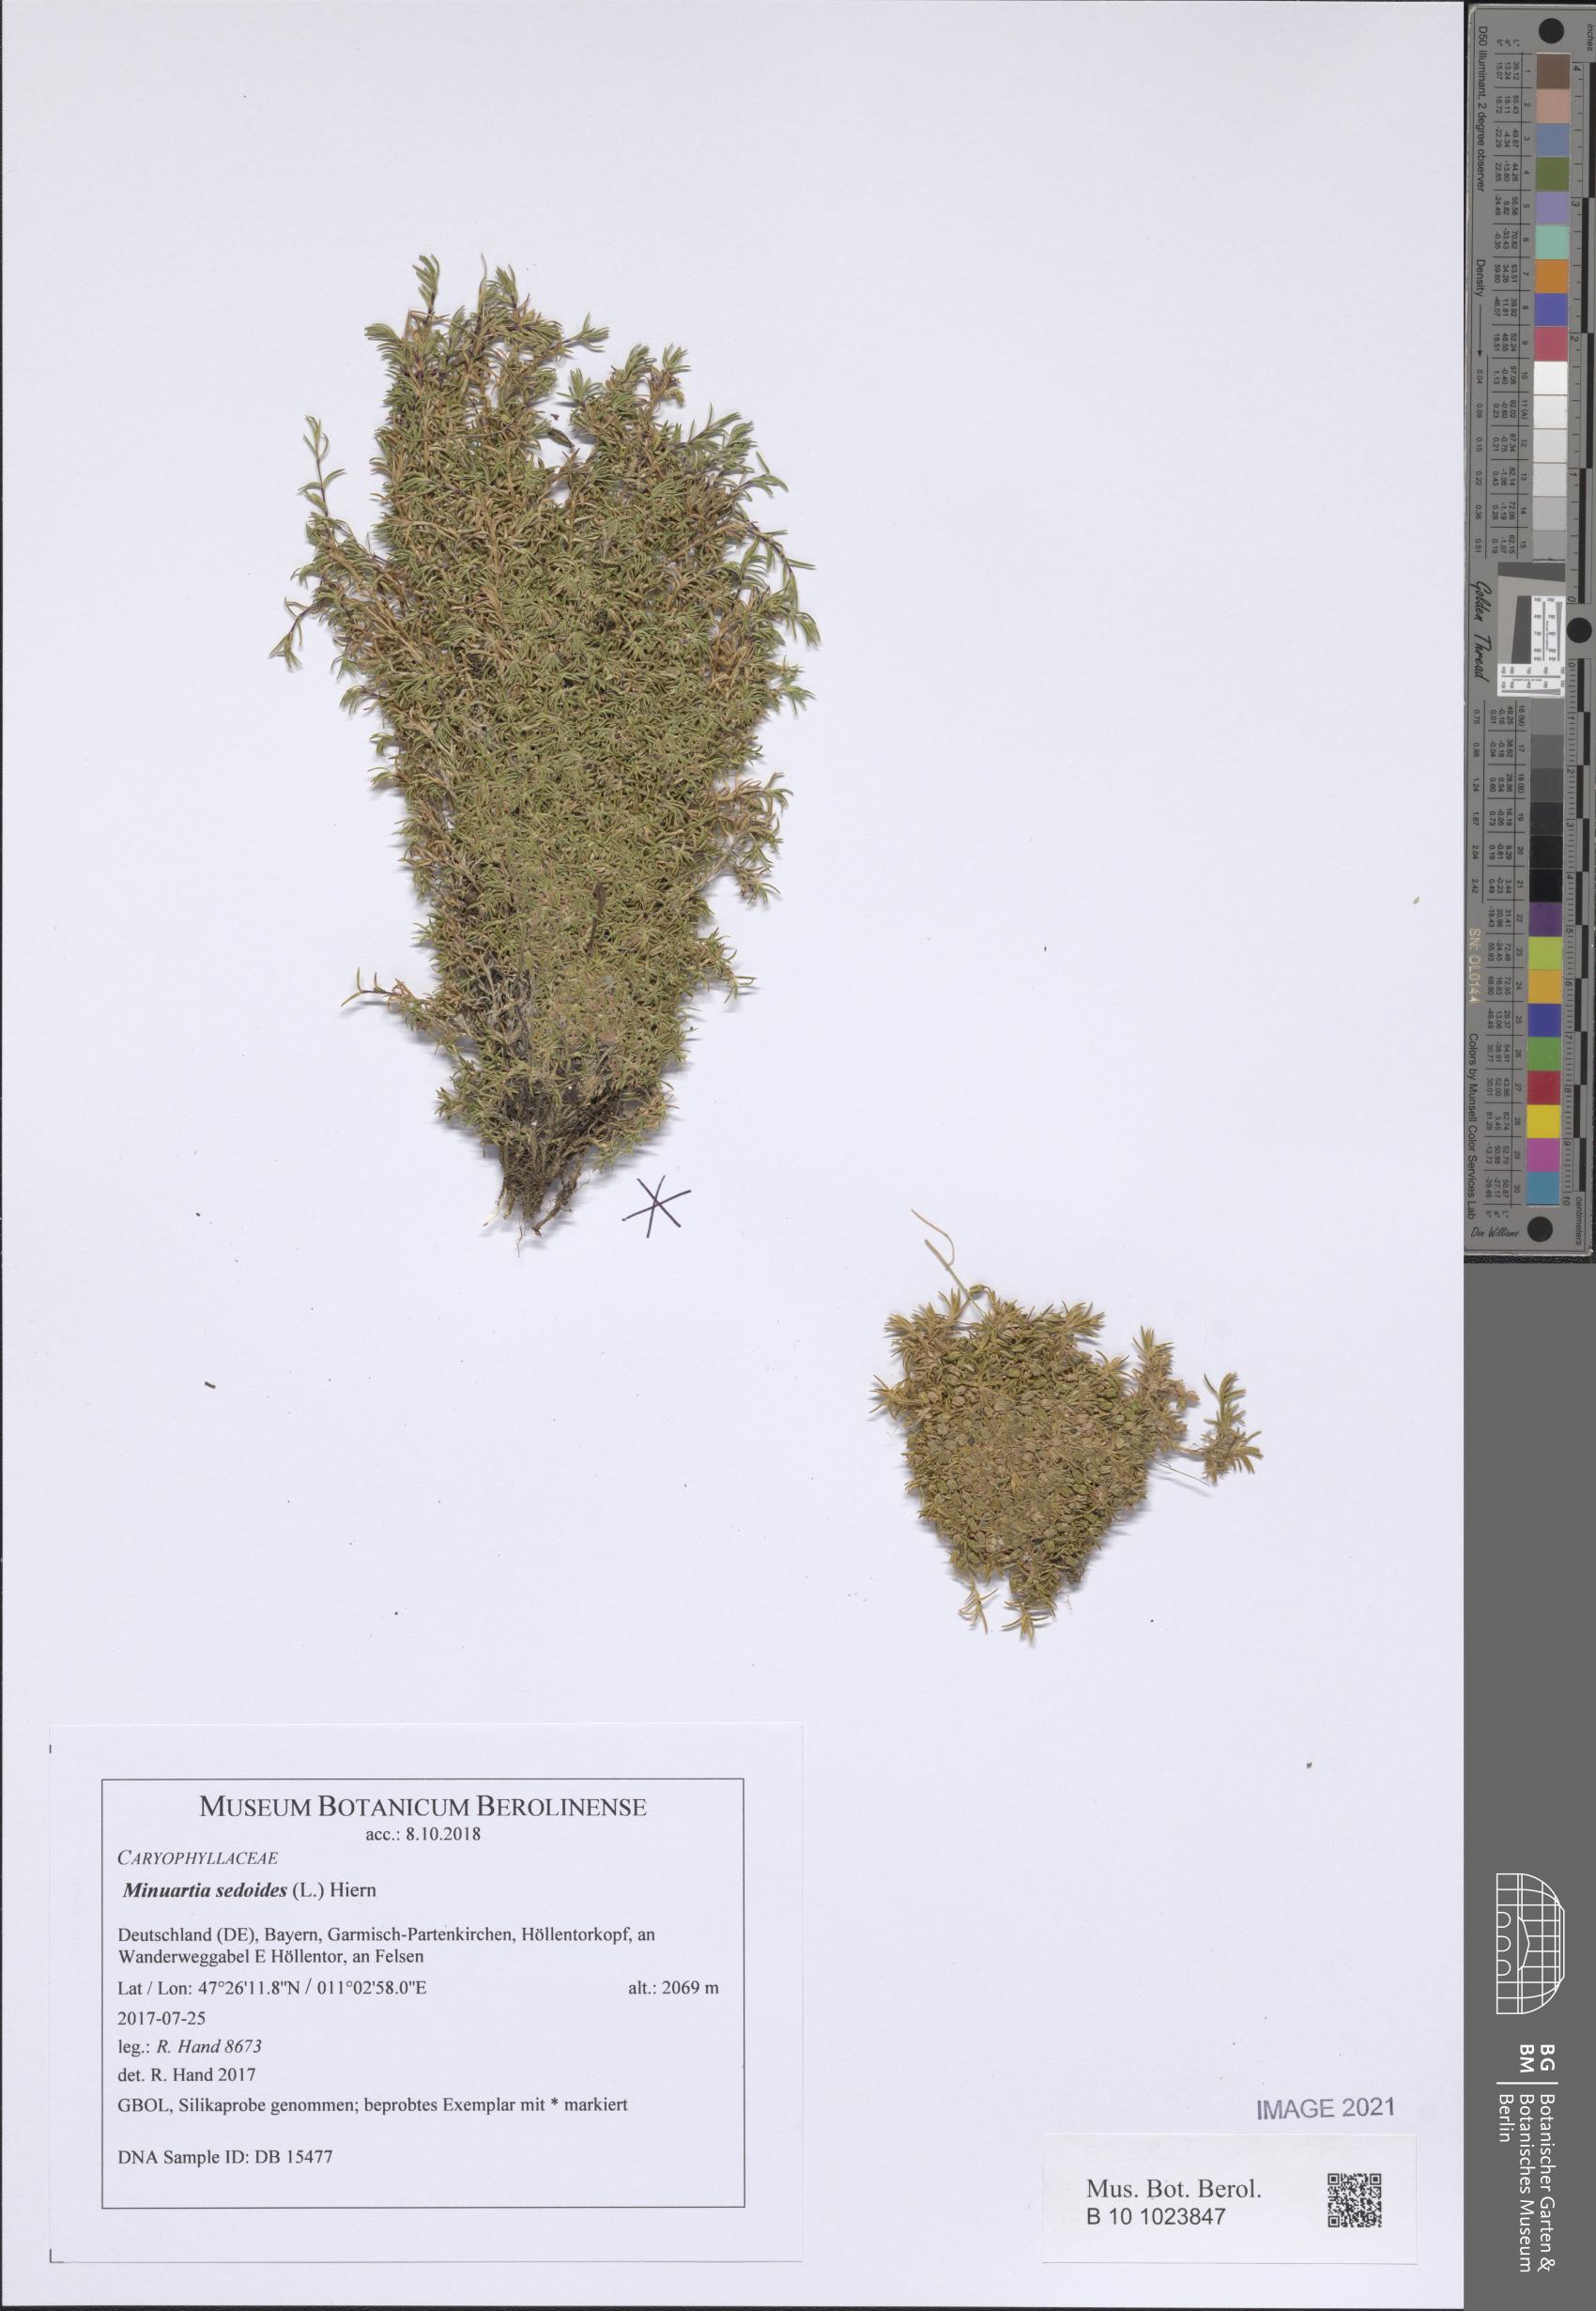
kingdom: Plantae
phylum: Tracheophyta
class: Magnoliopsida
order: Caryophyllales
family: Caryophyllaceae
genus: Cherleria
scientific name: Cherleria sedoides
